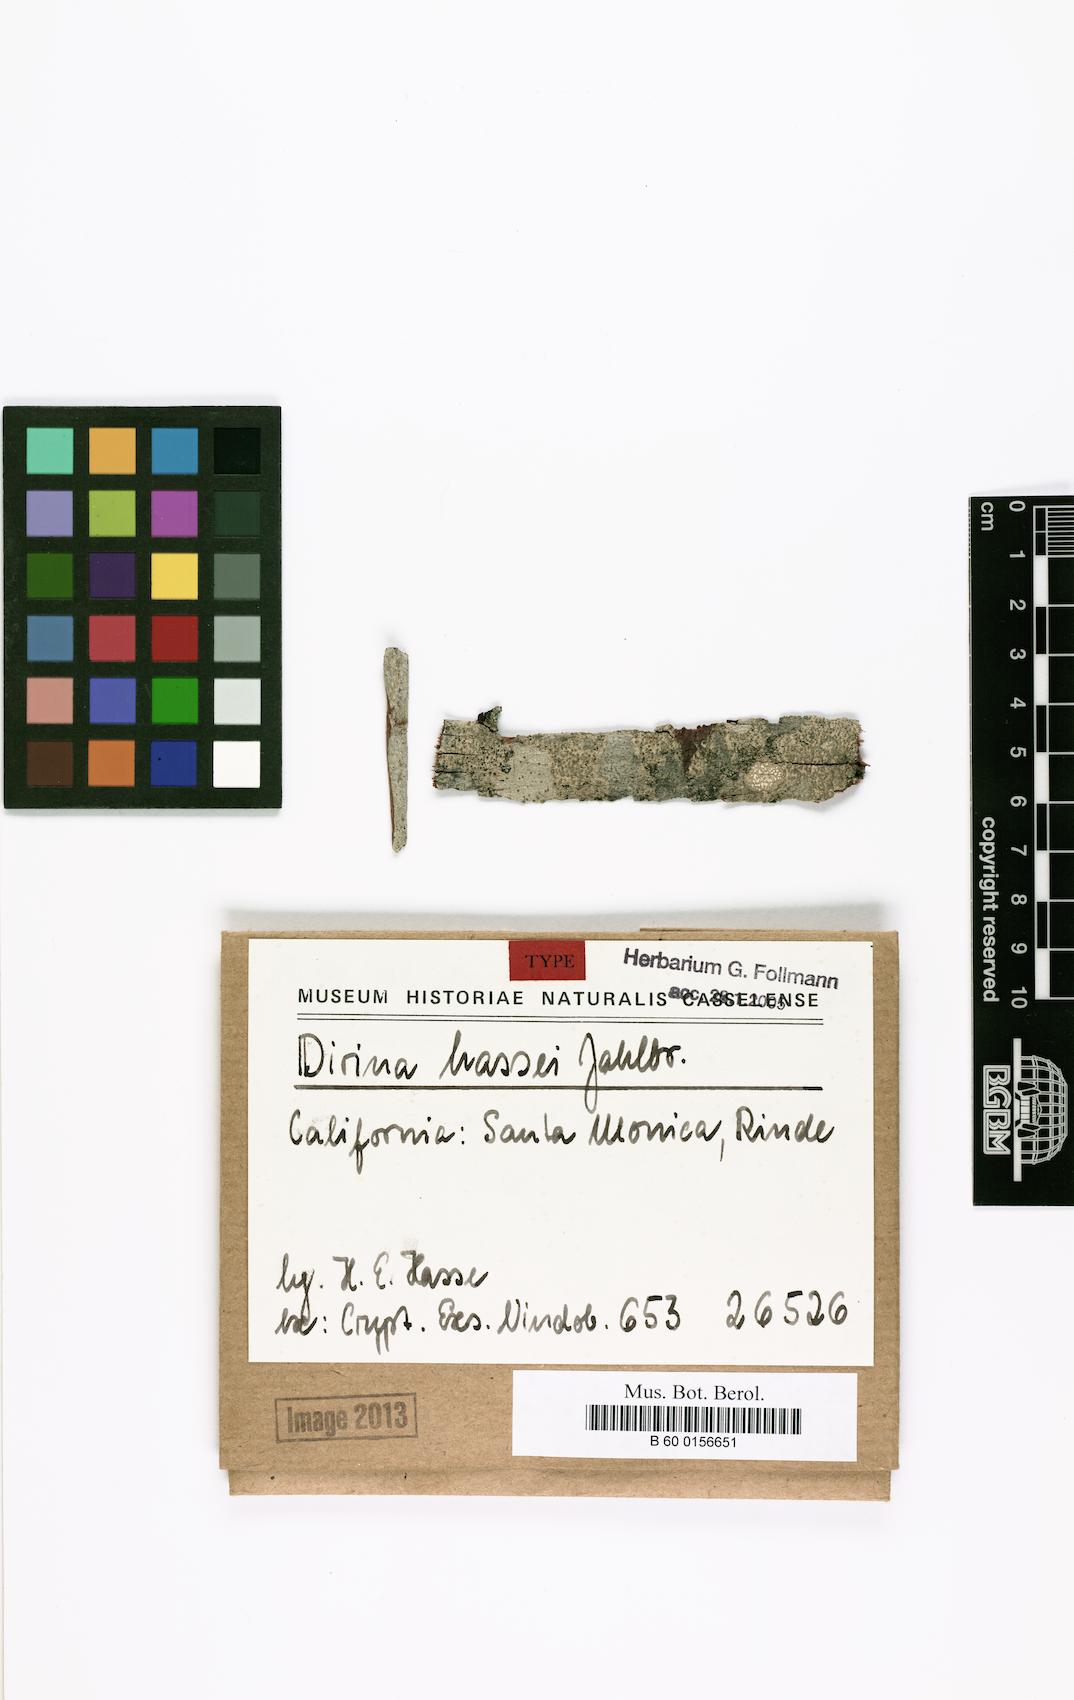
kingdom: Fungi
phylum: Ascomycota
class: Arthoniomycetes
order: Arthoniales
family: Roccellaceae
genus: Sigridea
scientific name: Sigridea californica
